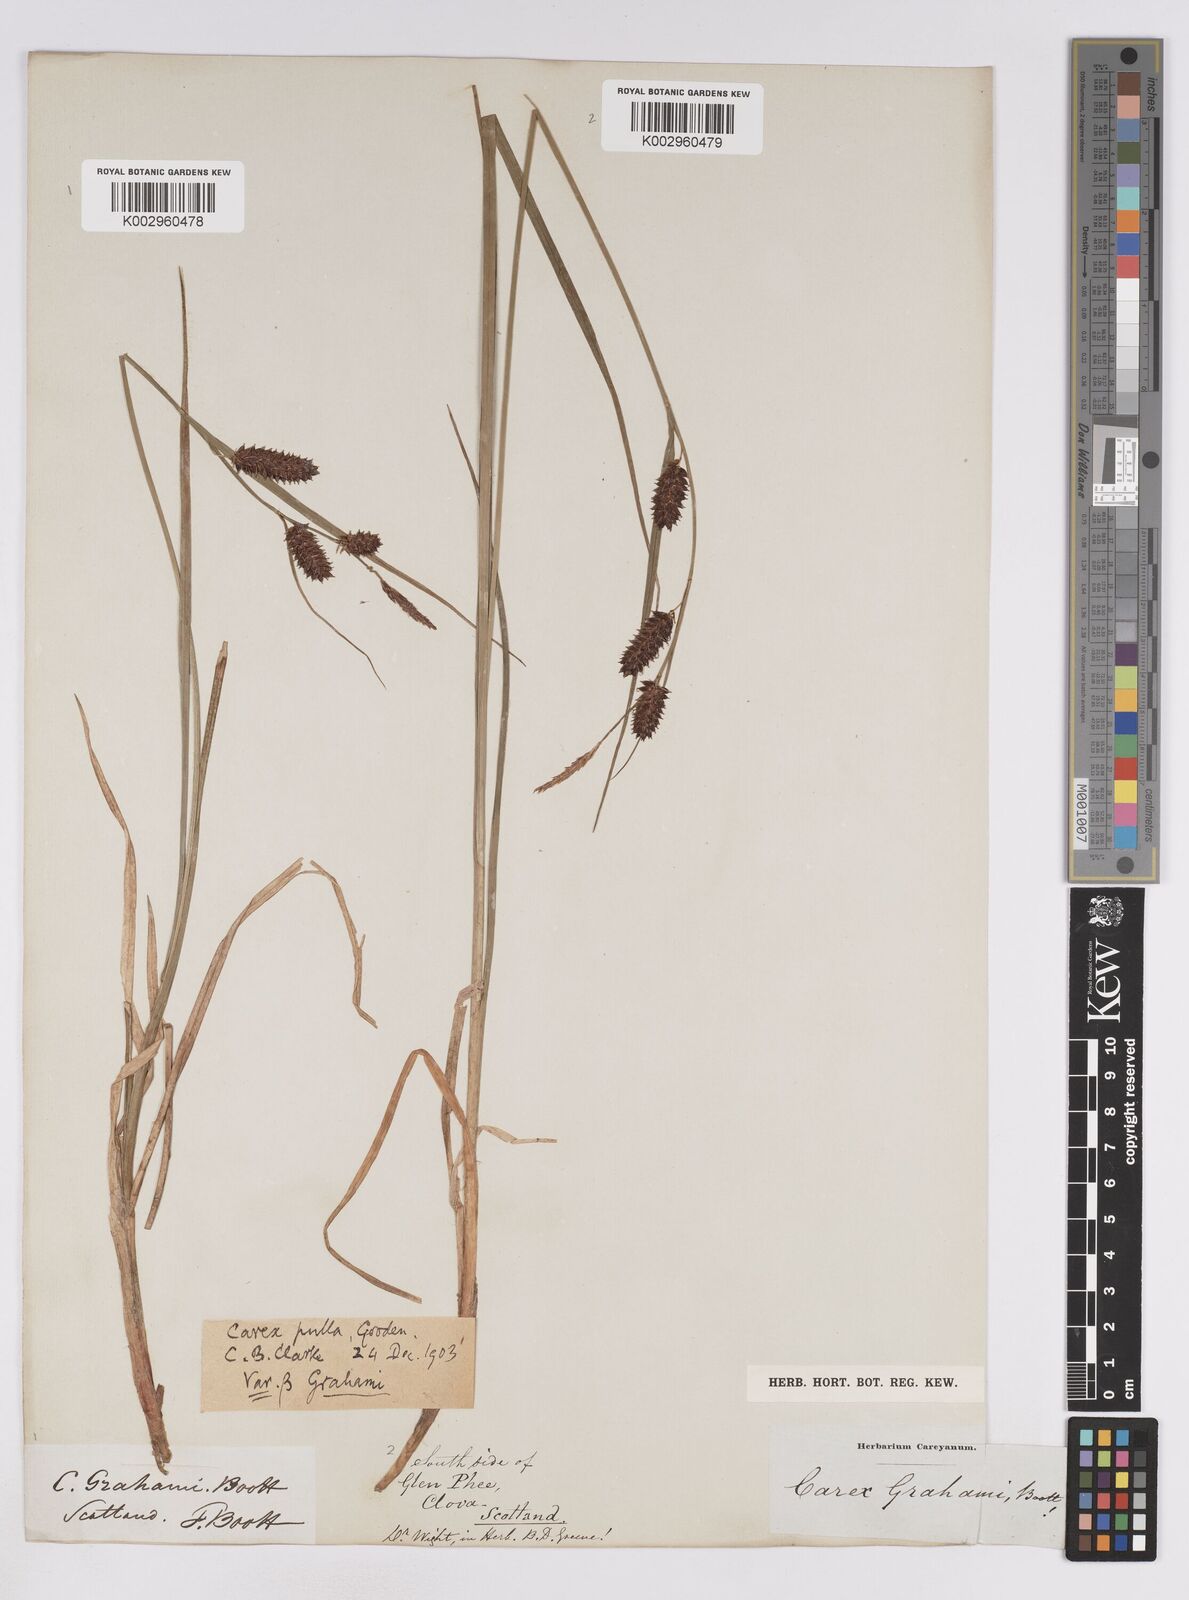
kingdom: Plantae
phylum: Tracheophyta
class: Liliopsida
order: Poales
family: Cyperaceae
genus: Carex
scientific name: Carex saxatilis
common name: Russet sedge
